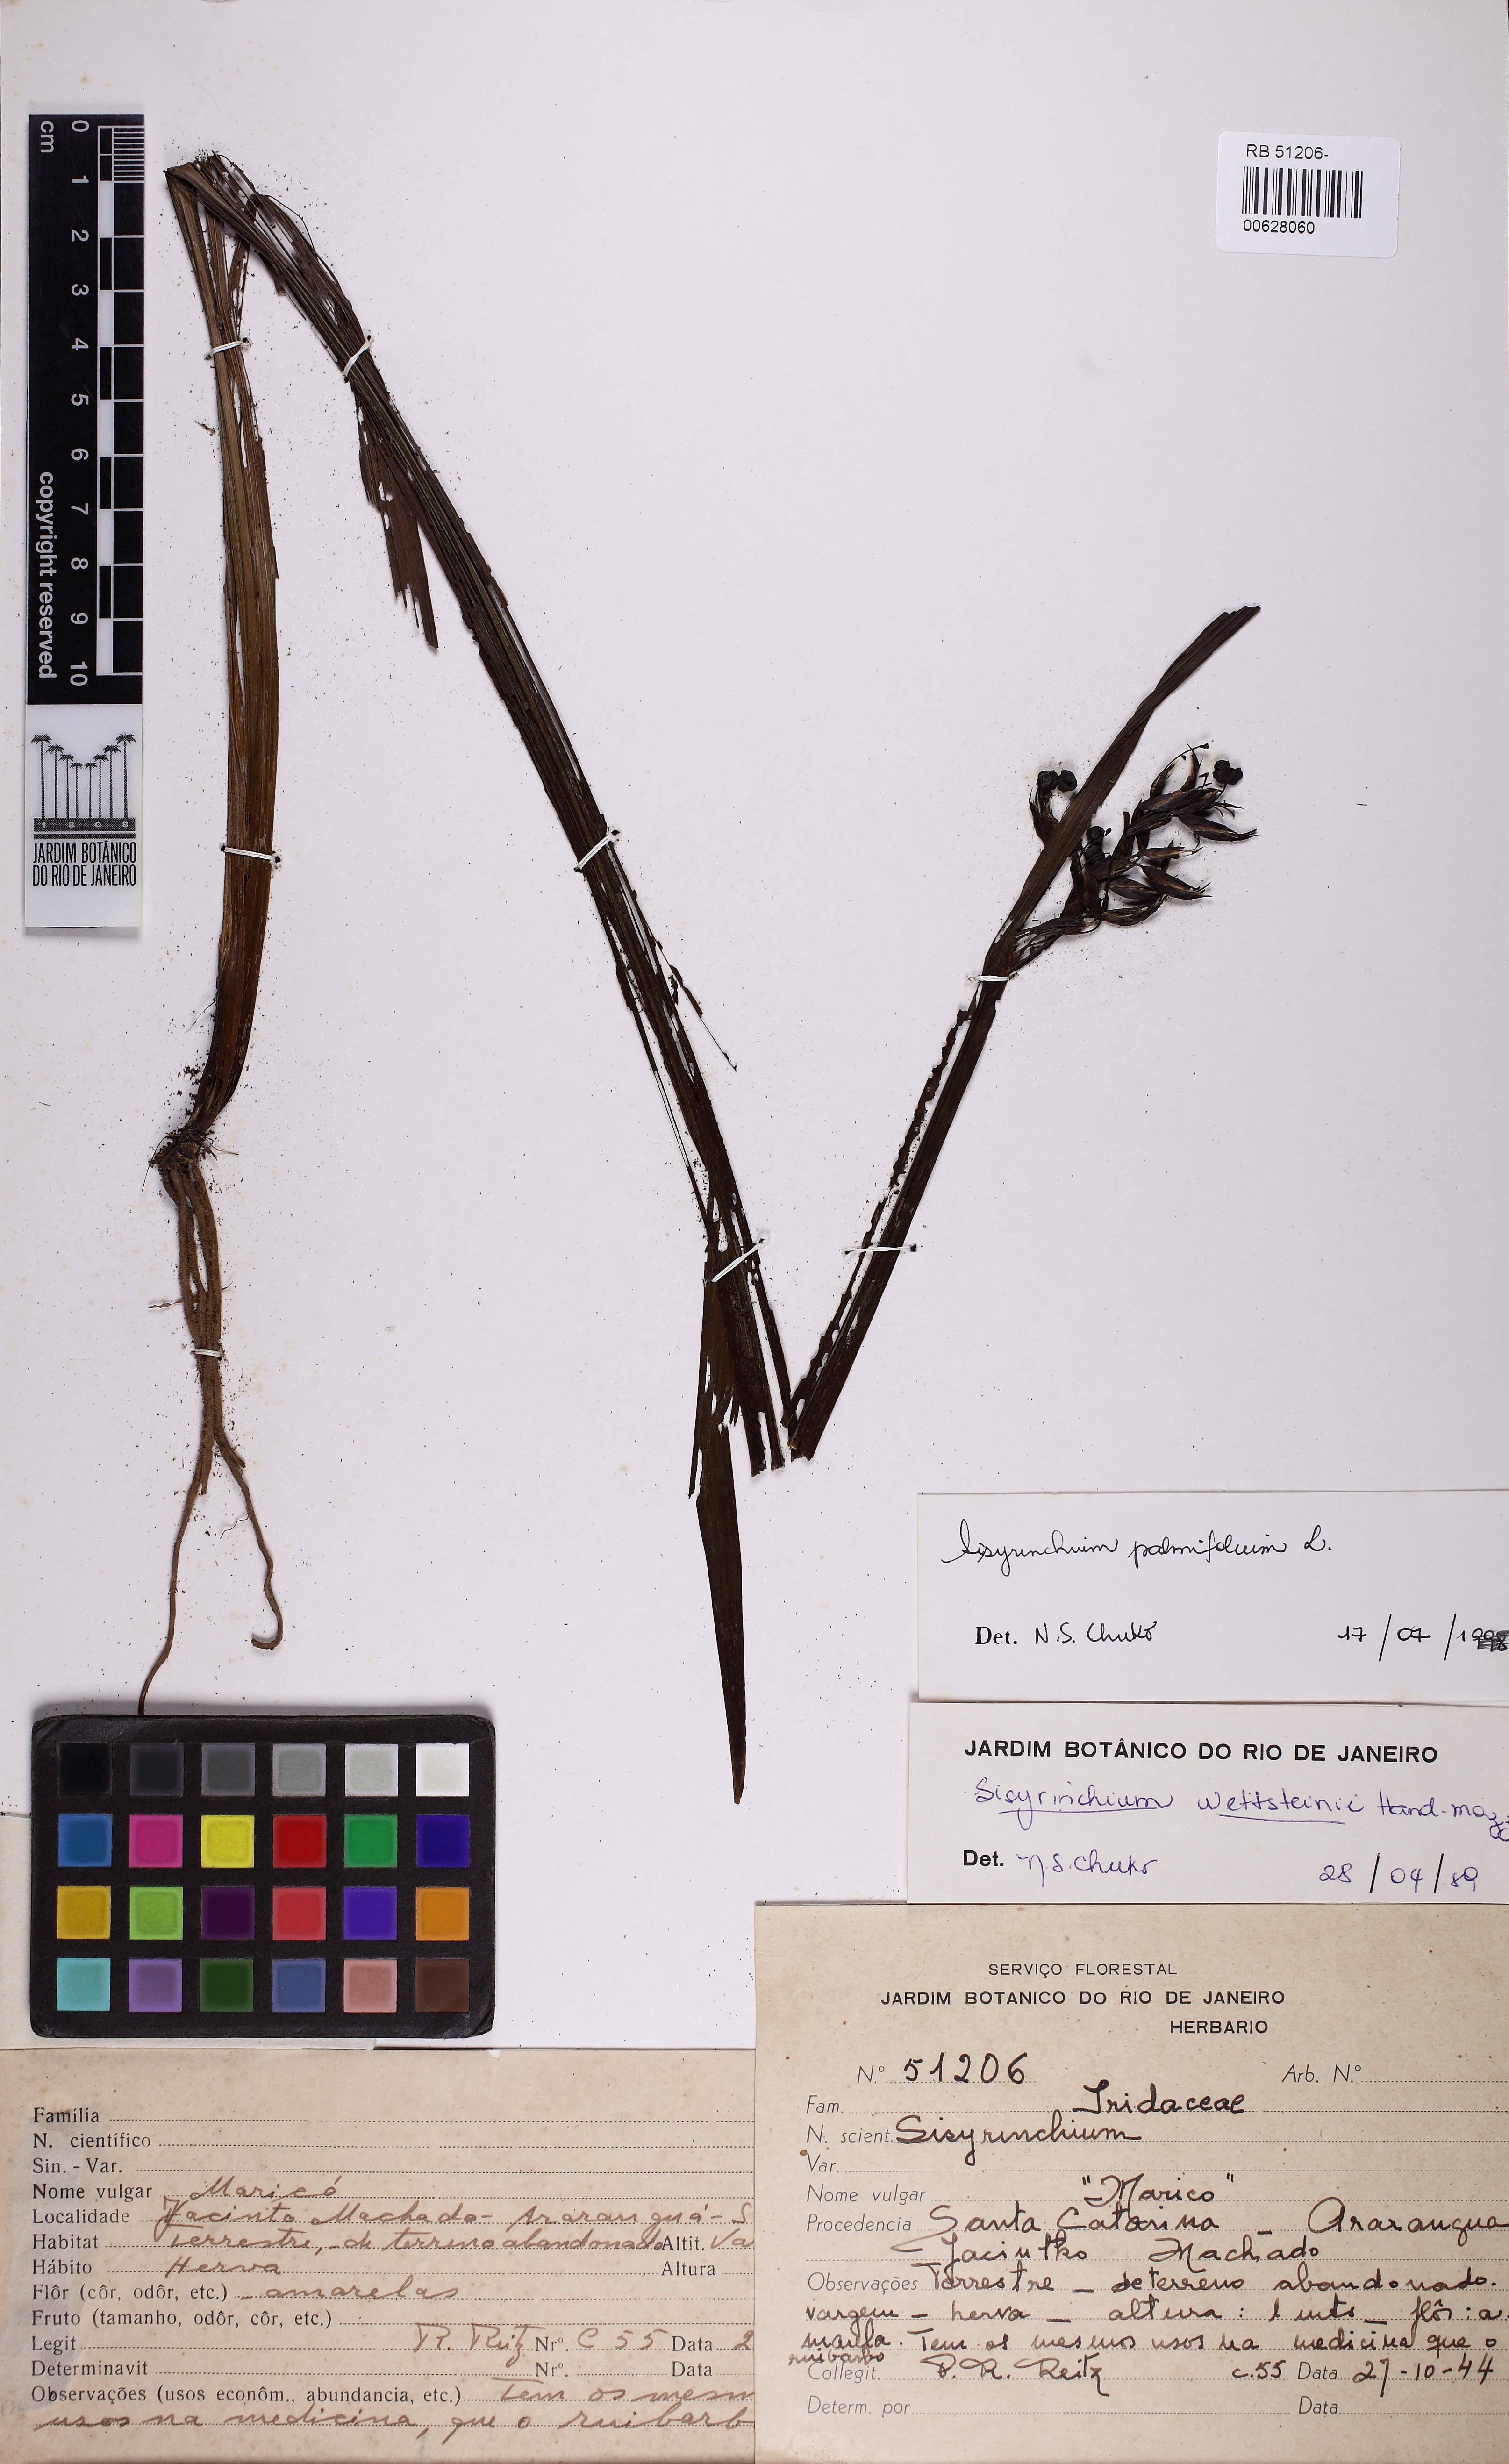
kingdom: Plantae
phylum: Tracheophyta
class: Liliopsida
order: Asparagales
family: Iridaceae
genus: Sisyrinchium
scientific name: Sisyrinchium plicatulum
